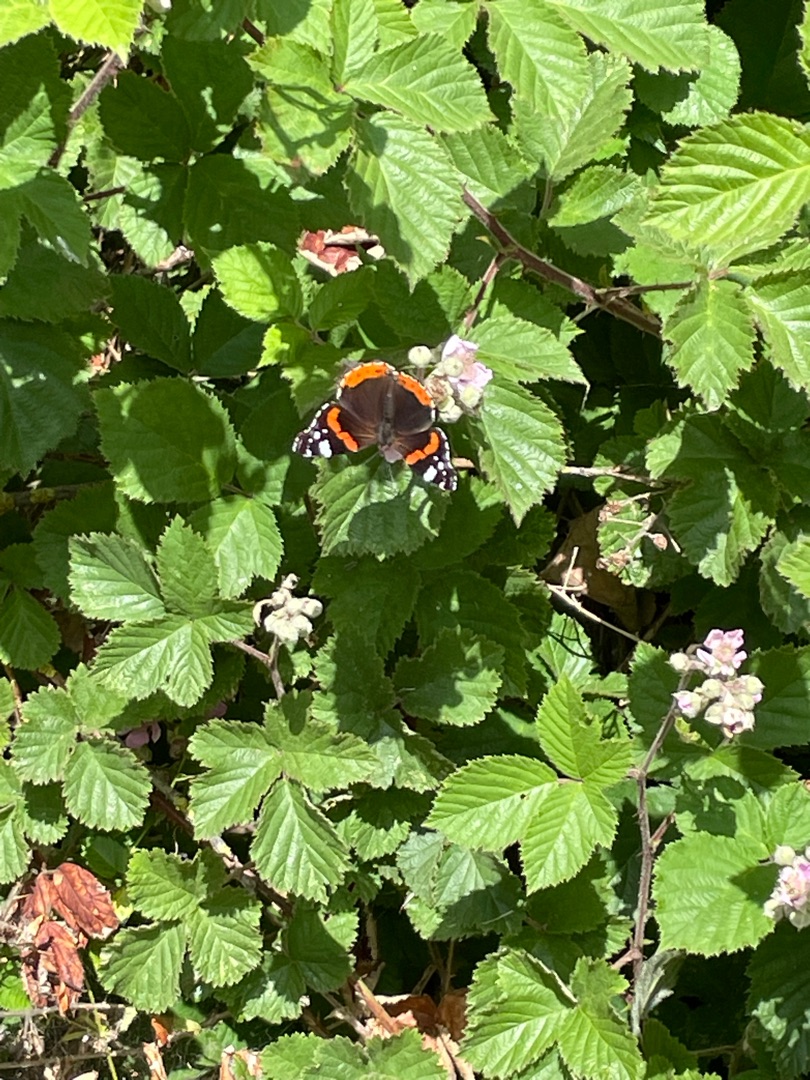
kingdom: Animalia
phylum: Arthropoda
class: Insecta
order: Lepidoptera
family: Nymphalidae
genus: Vanessa
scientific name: Vanessa atalanta
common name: Admiral
